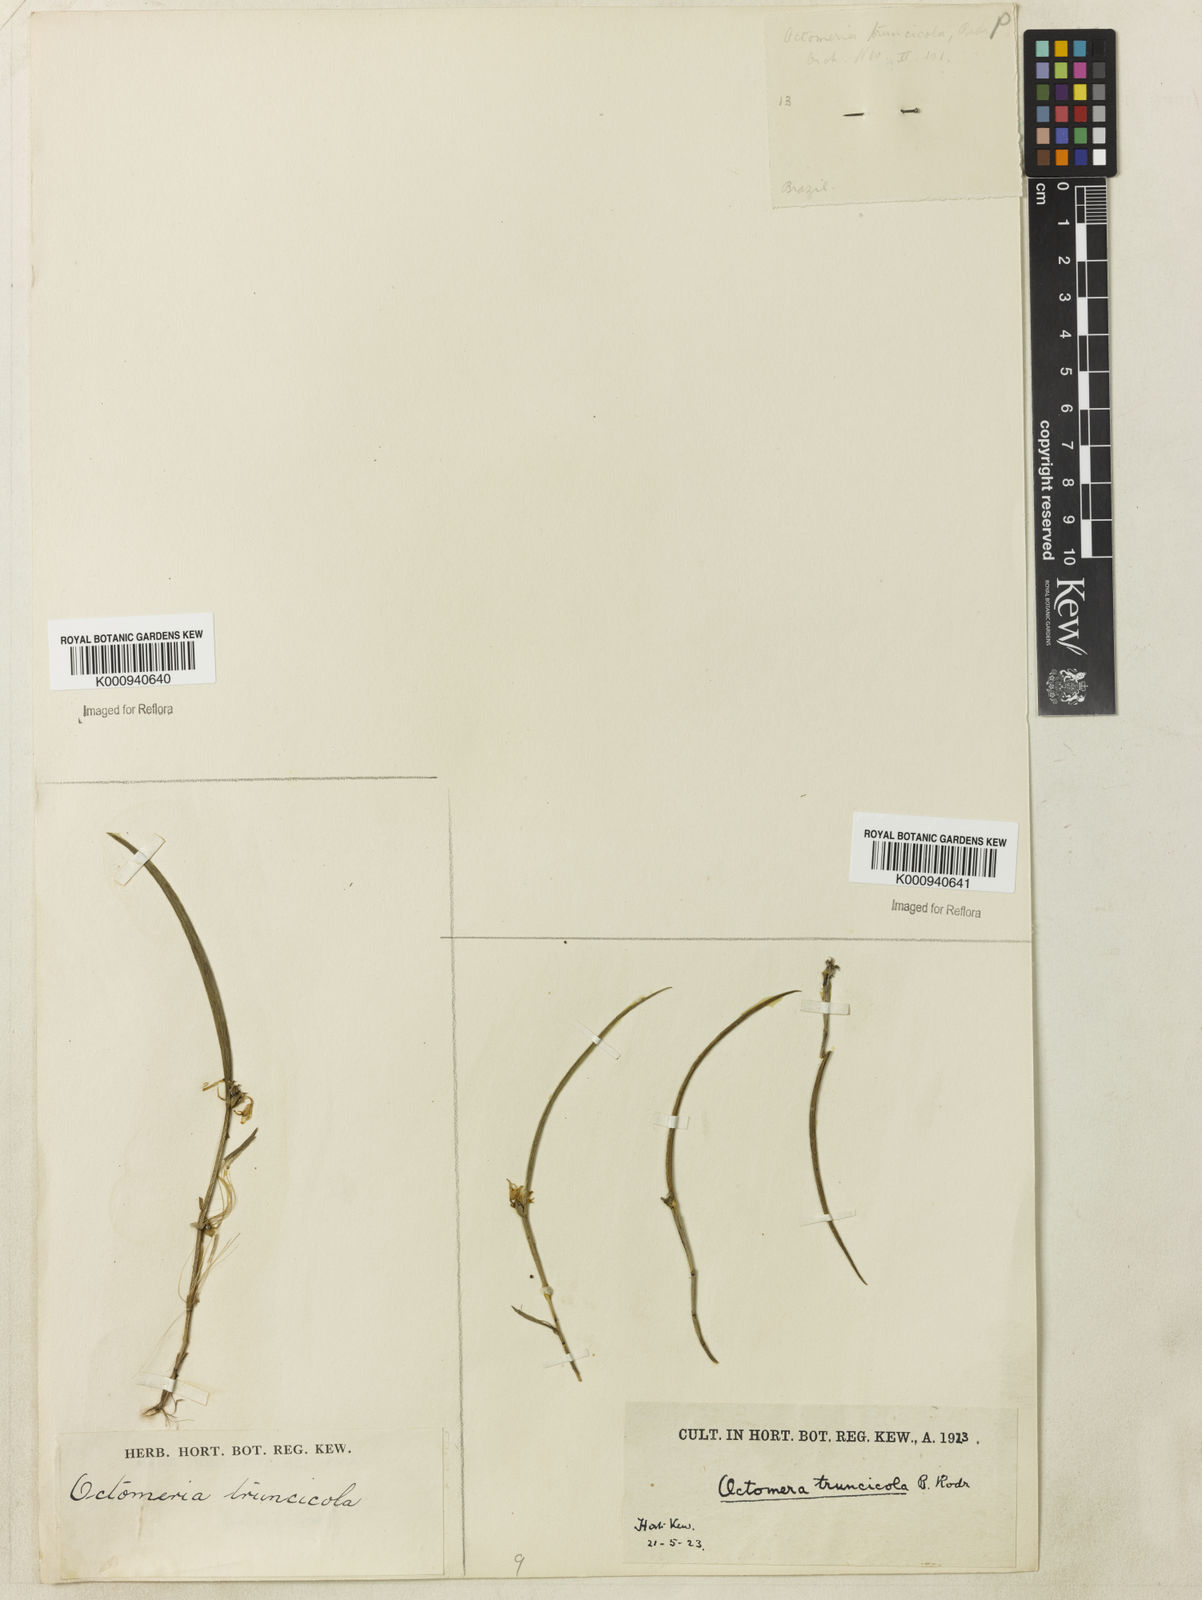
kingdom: Plantae
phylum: Tracheophyta
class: Liliopsida
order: Asparagales
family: Orchidaceae
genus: Octomeria
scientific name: Octomeria truncicola
